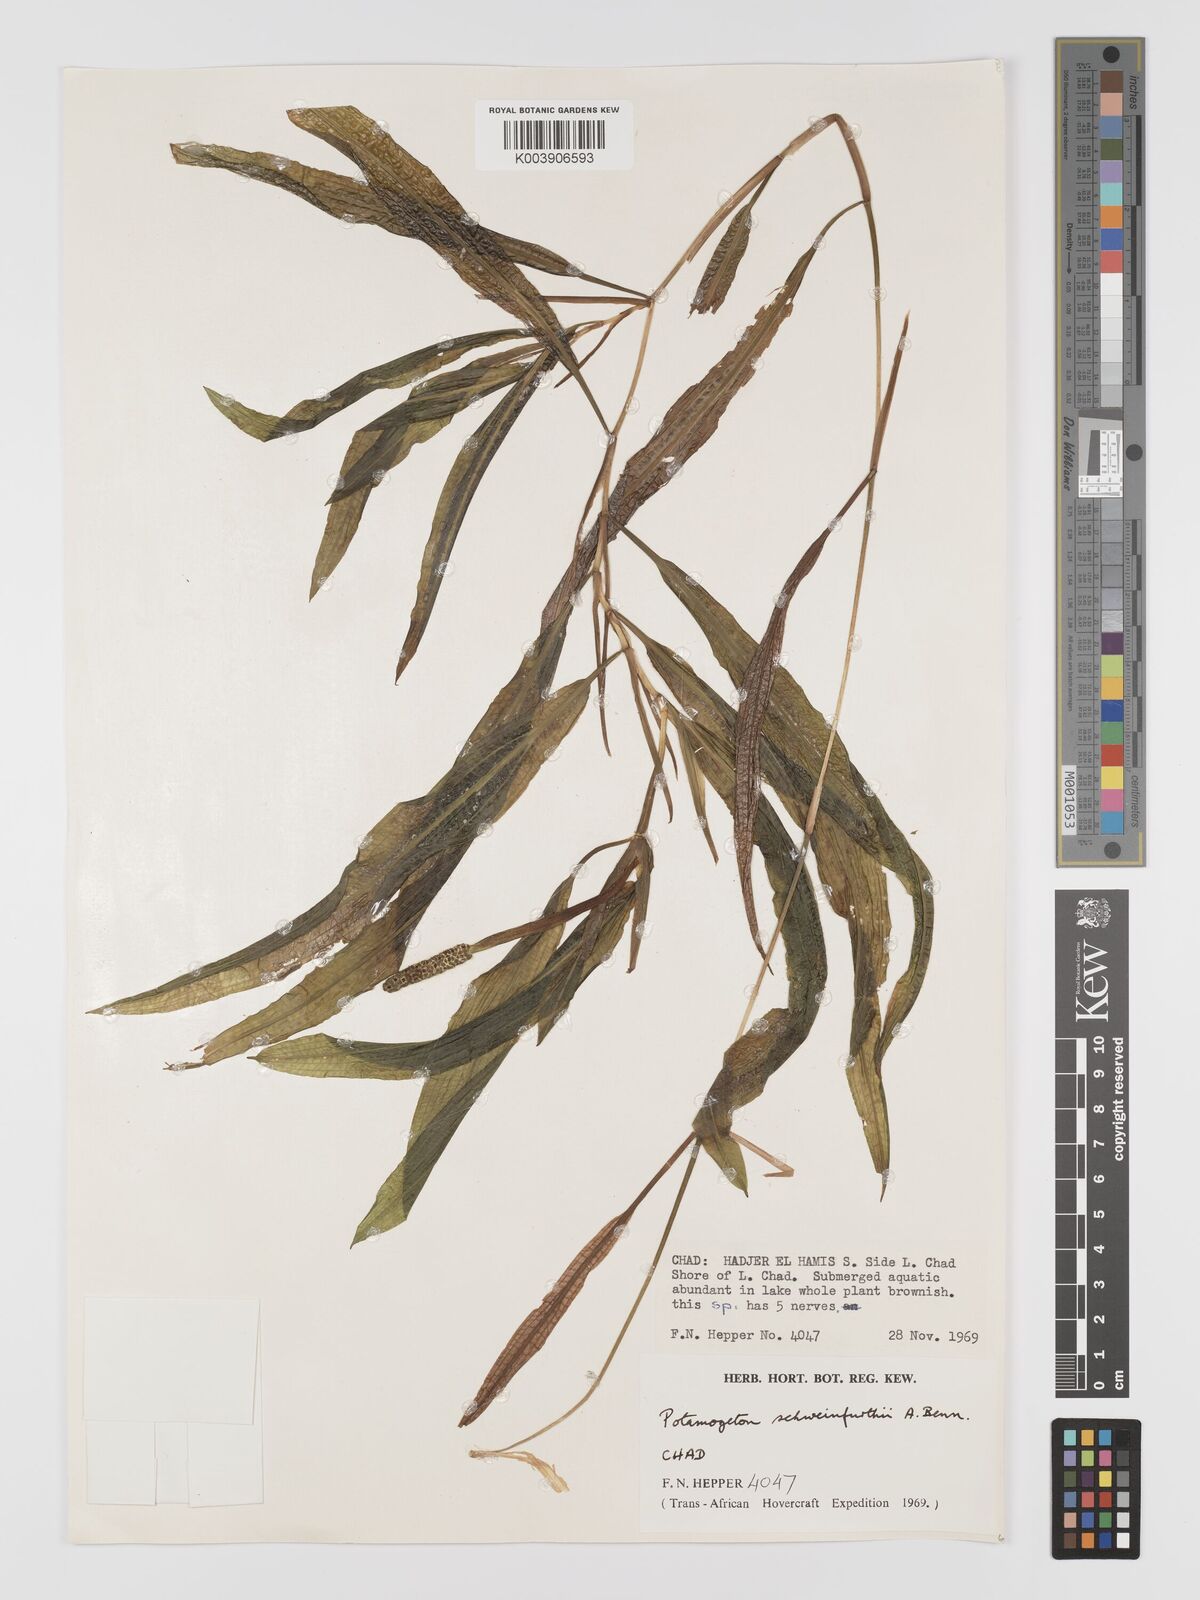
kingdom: Plantae
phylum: Tracheophyta
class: Liliopsida
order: Alismatales
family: Potamogetonaceae
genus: Potamogeton
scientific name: Potamogeton schweinfurthii
